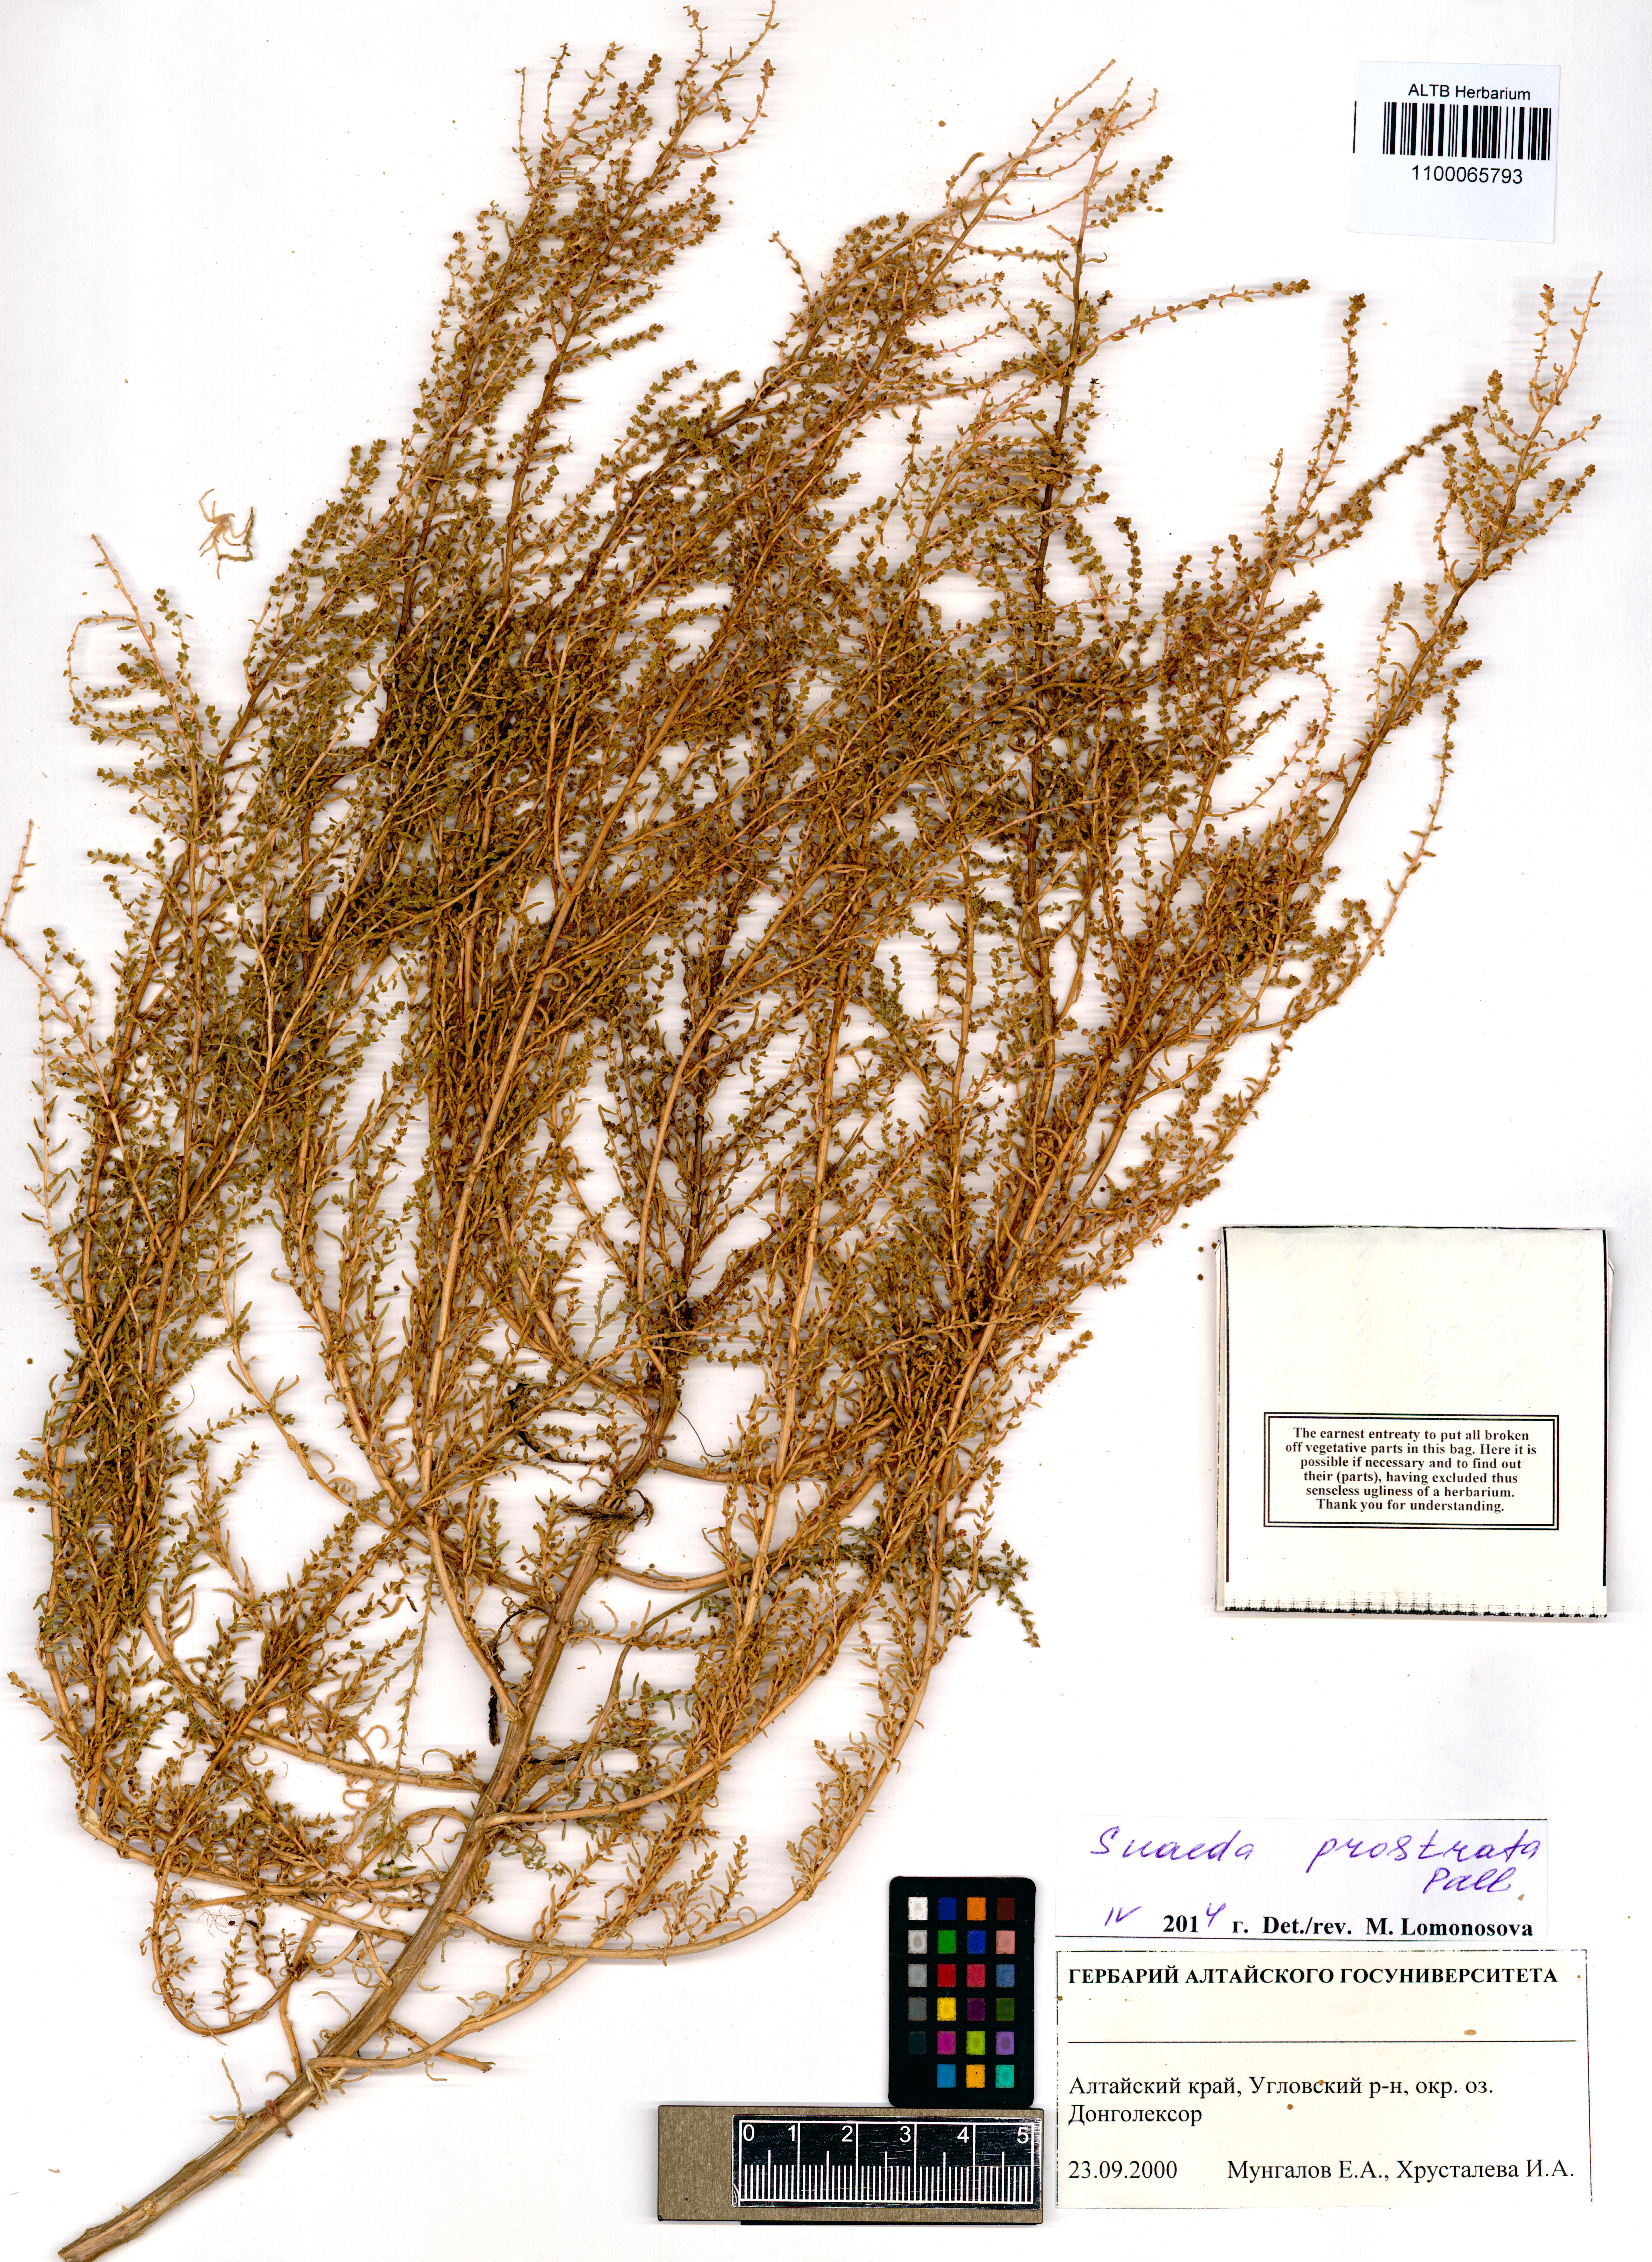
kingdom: Plantae
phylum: Tracheophyta
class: Magnoliopsida
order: Caryophyllales
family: Amaranthaceae
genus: Suaeda
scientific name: Suaeda prostrata
